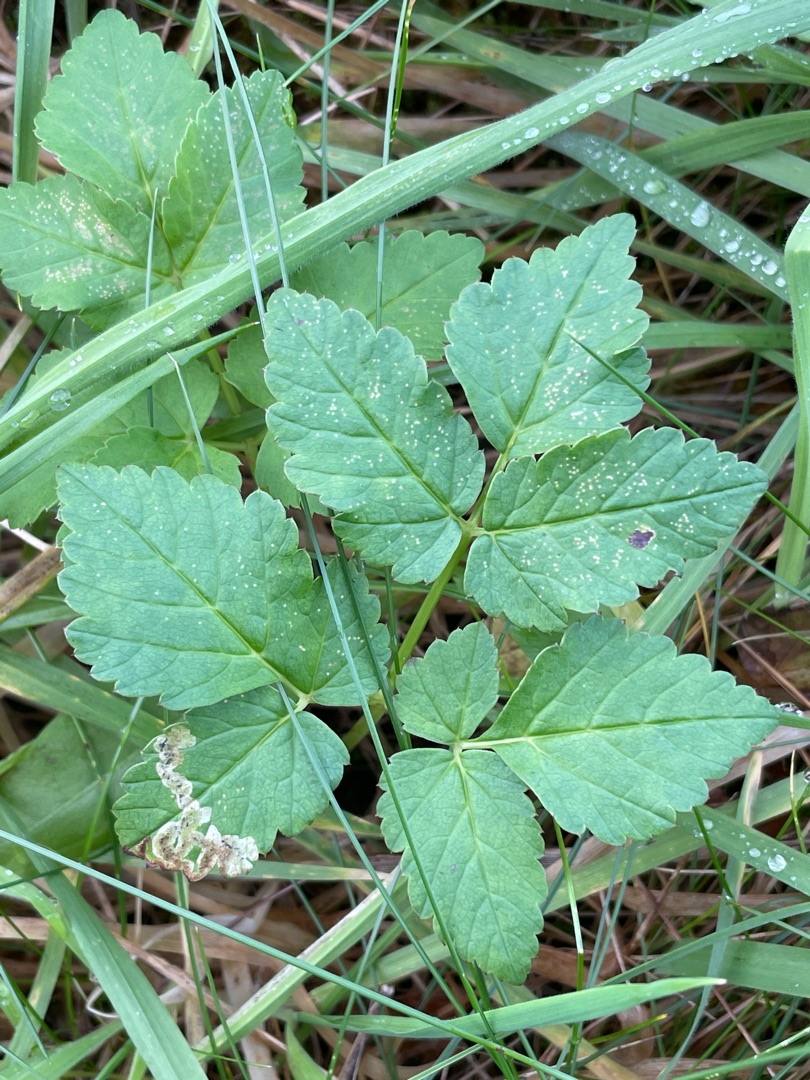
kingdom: Plantae
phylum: Tracheophyta
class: Magnoliopsida
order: Apiales
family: Apiaceae
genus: Aegopodium
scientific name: Aegopodium podagraria
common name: Skvalderkål
